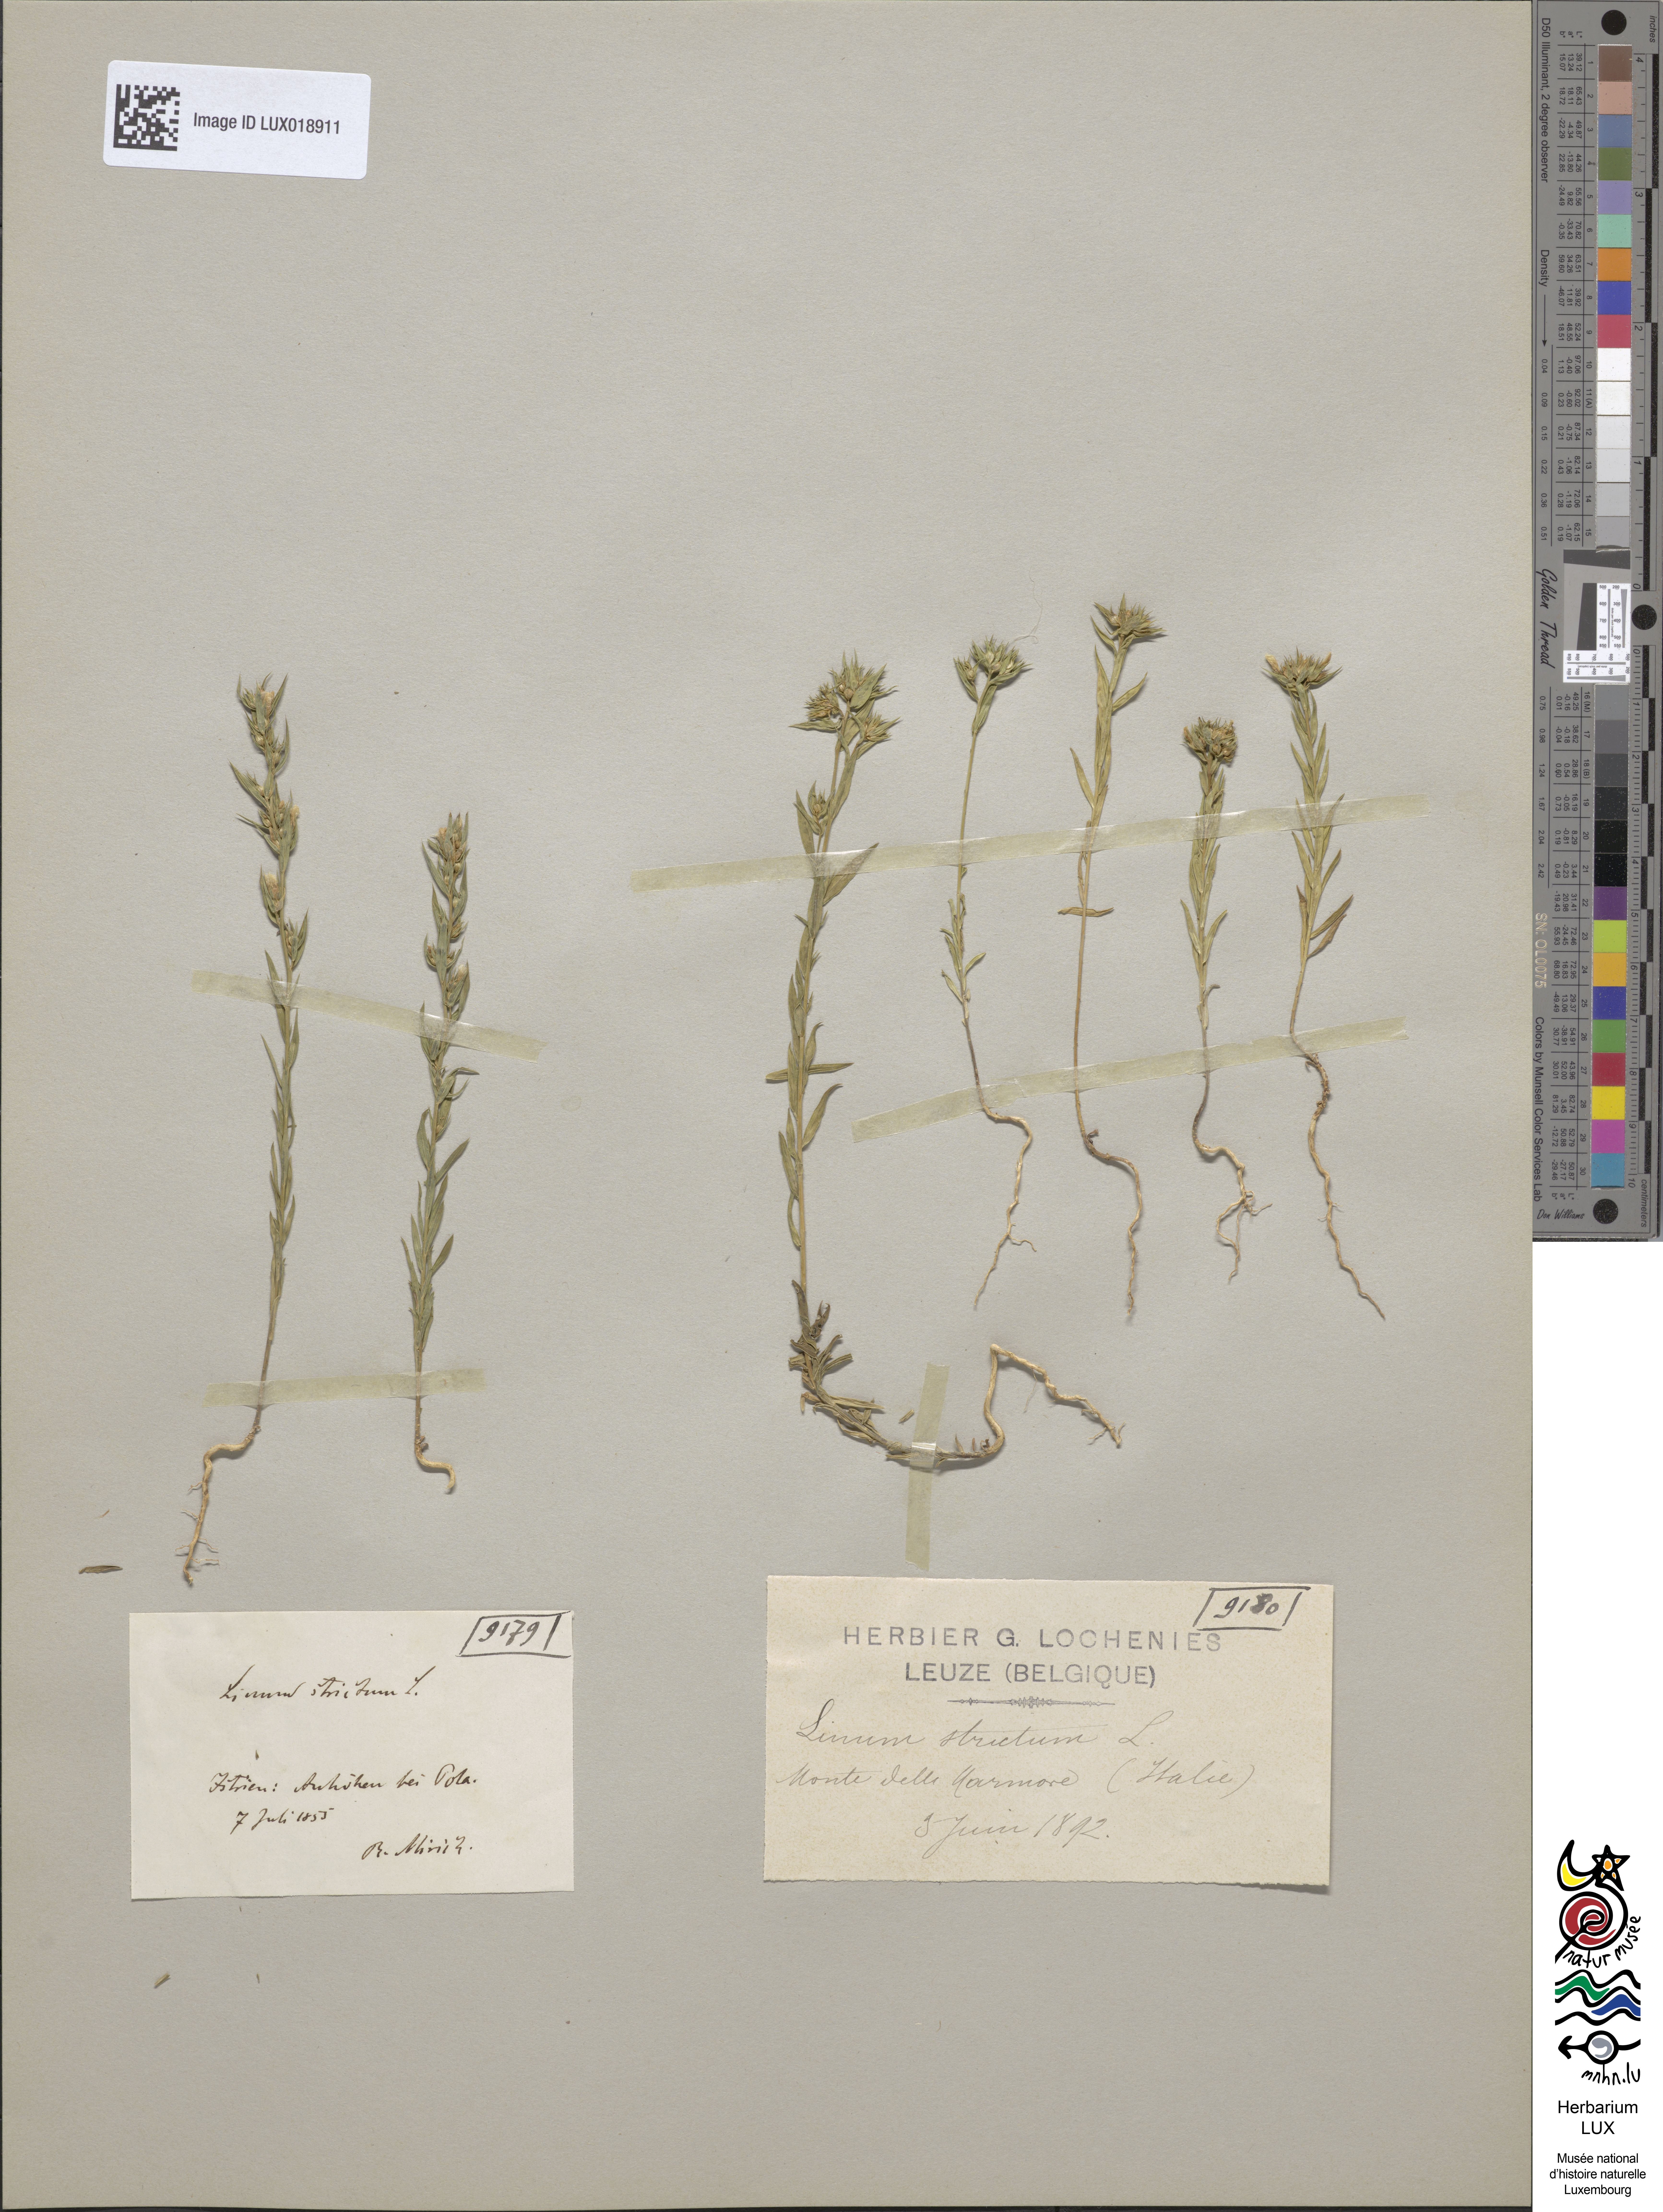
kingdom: Plantae
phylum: Tracheophyta
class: Magnoliopsida
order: Malpighiales
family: Linaceae
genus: Linum
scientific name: Linum strictum
